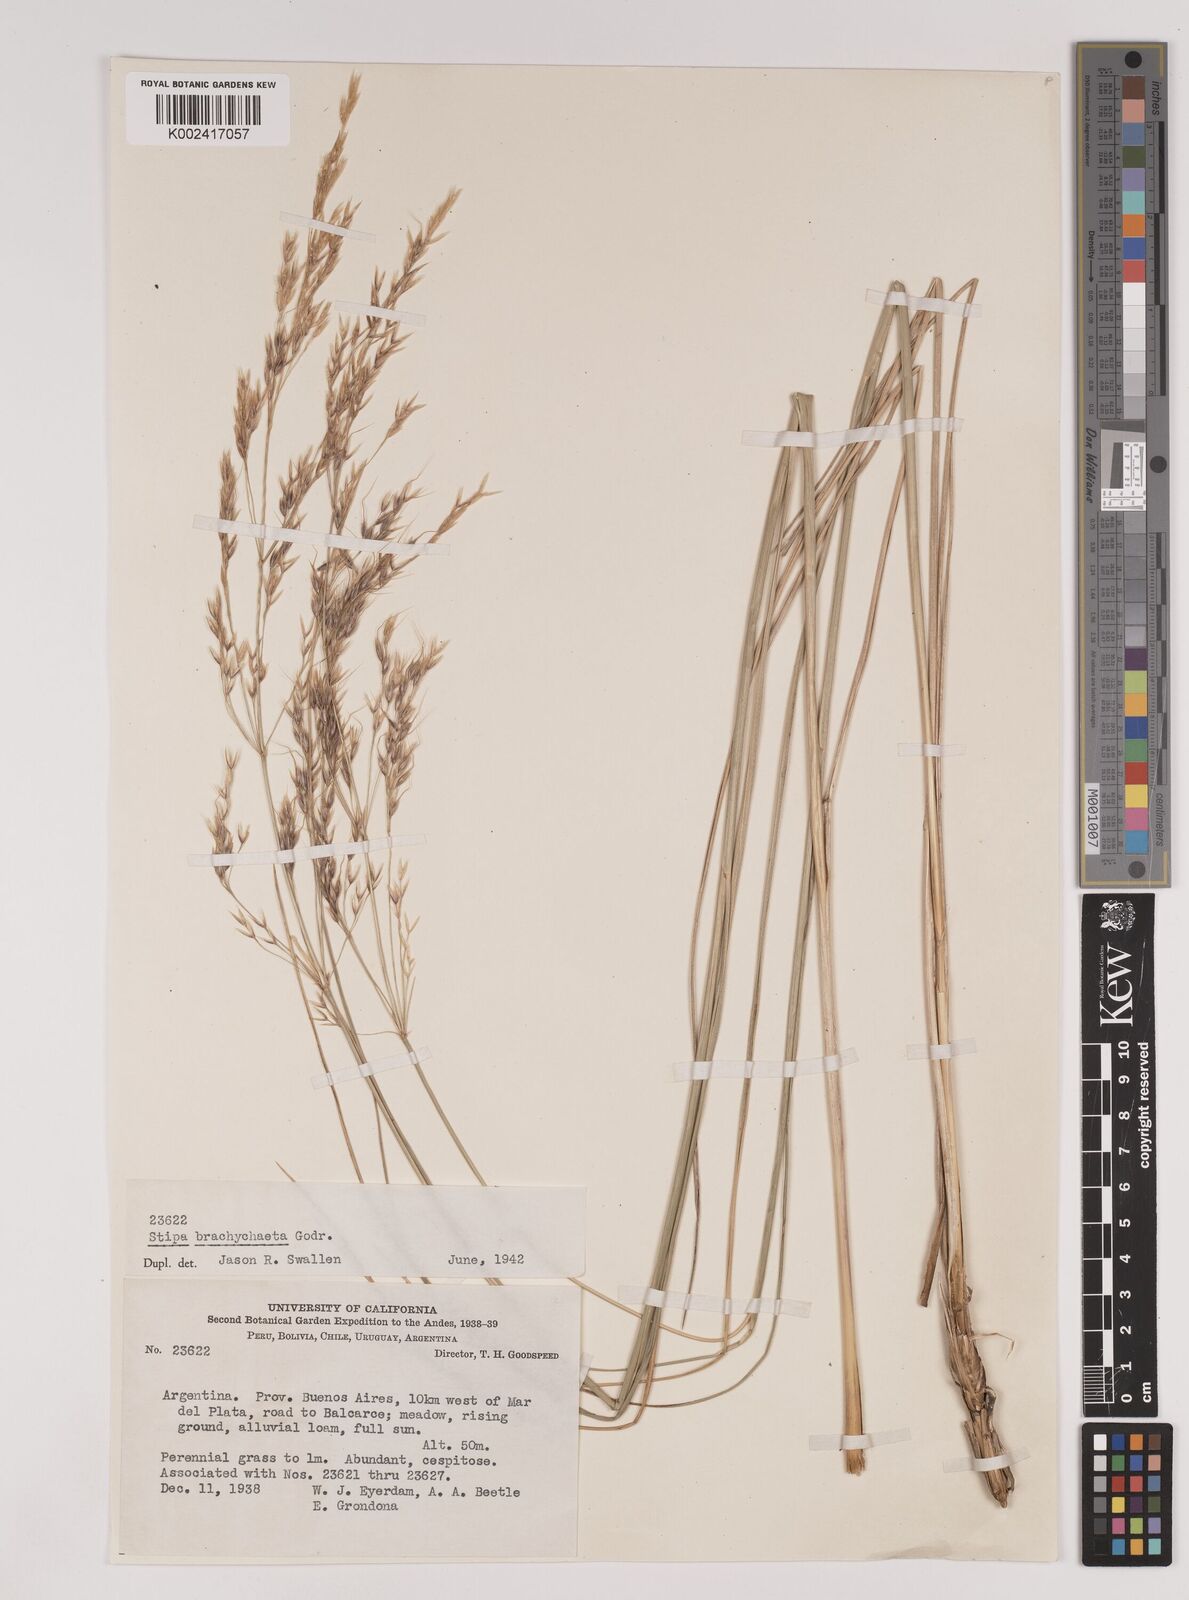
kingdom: Plantae
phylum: Tracheophyta
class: Liliopsida
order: Poales
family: Poaceae
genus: Amelichloa
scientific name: Amelichloa brachychaeta
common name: Shortbristled needlegrass
